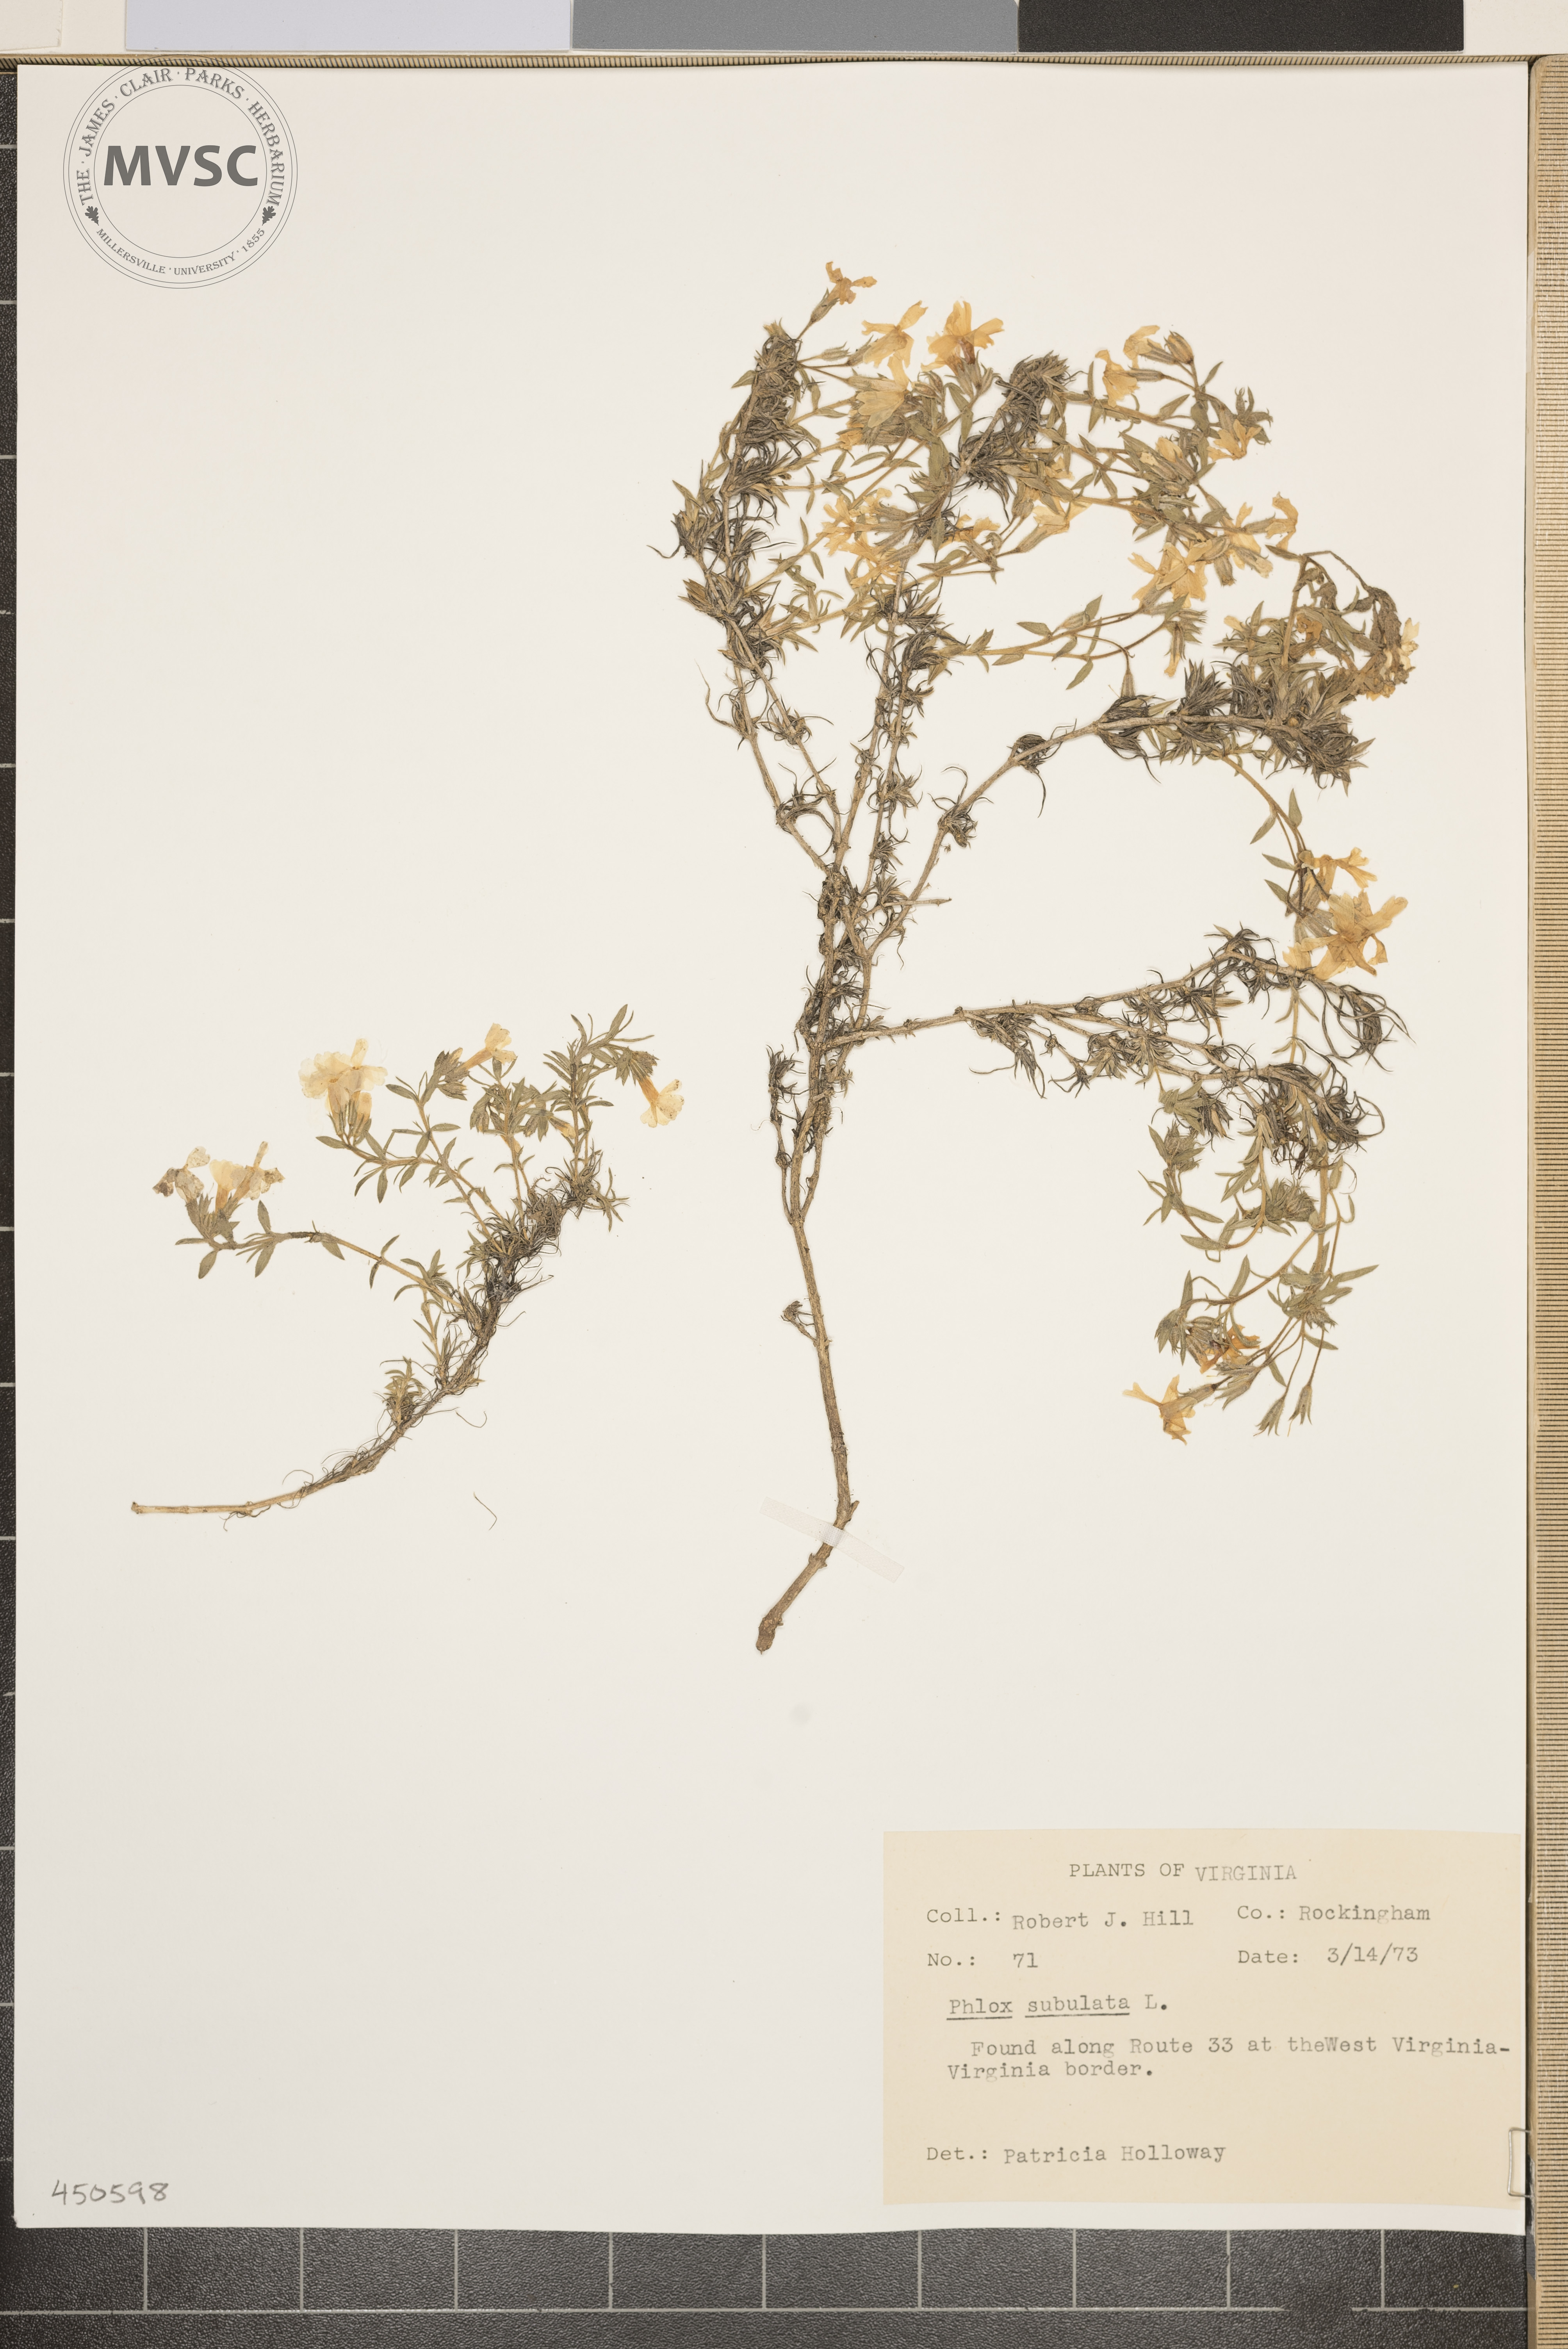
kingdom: Plantae
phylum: Tracheophyta
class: Magnoliopsida
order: Ericales
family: Polemoniaceae
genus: Phlox
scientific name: Phlox subulata
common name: Moss phlox
